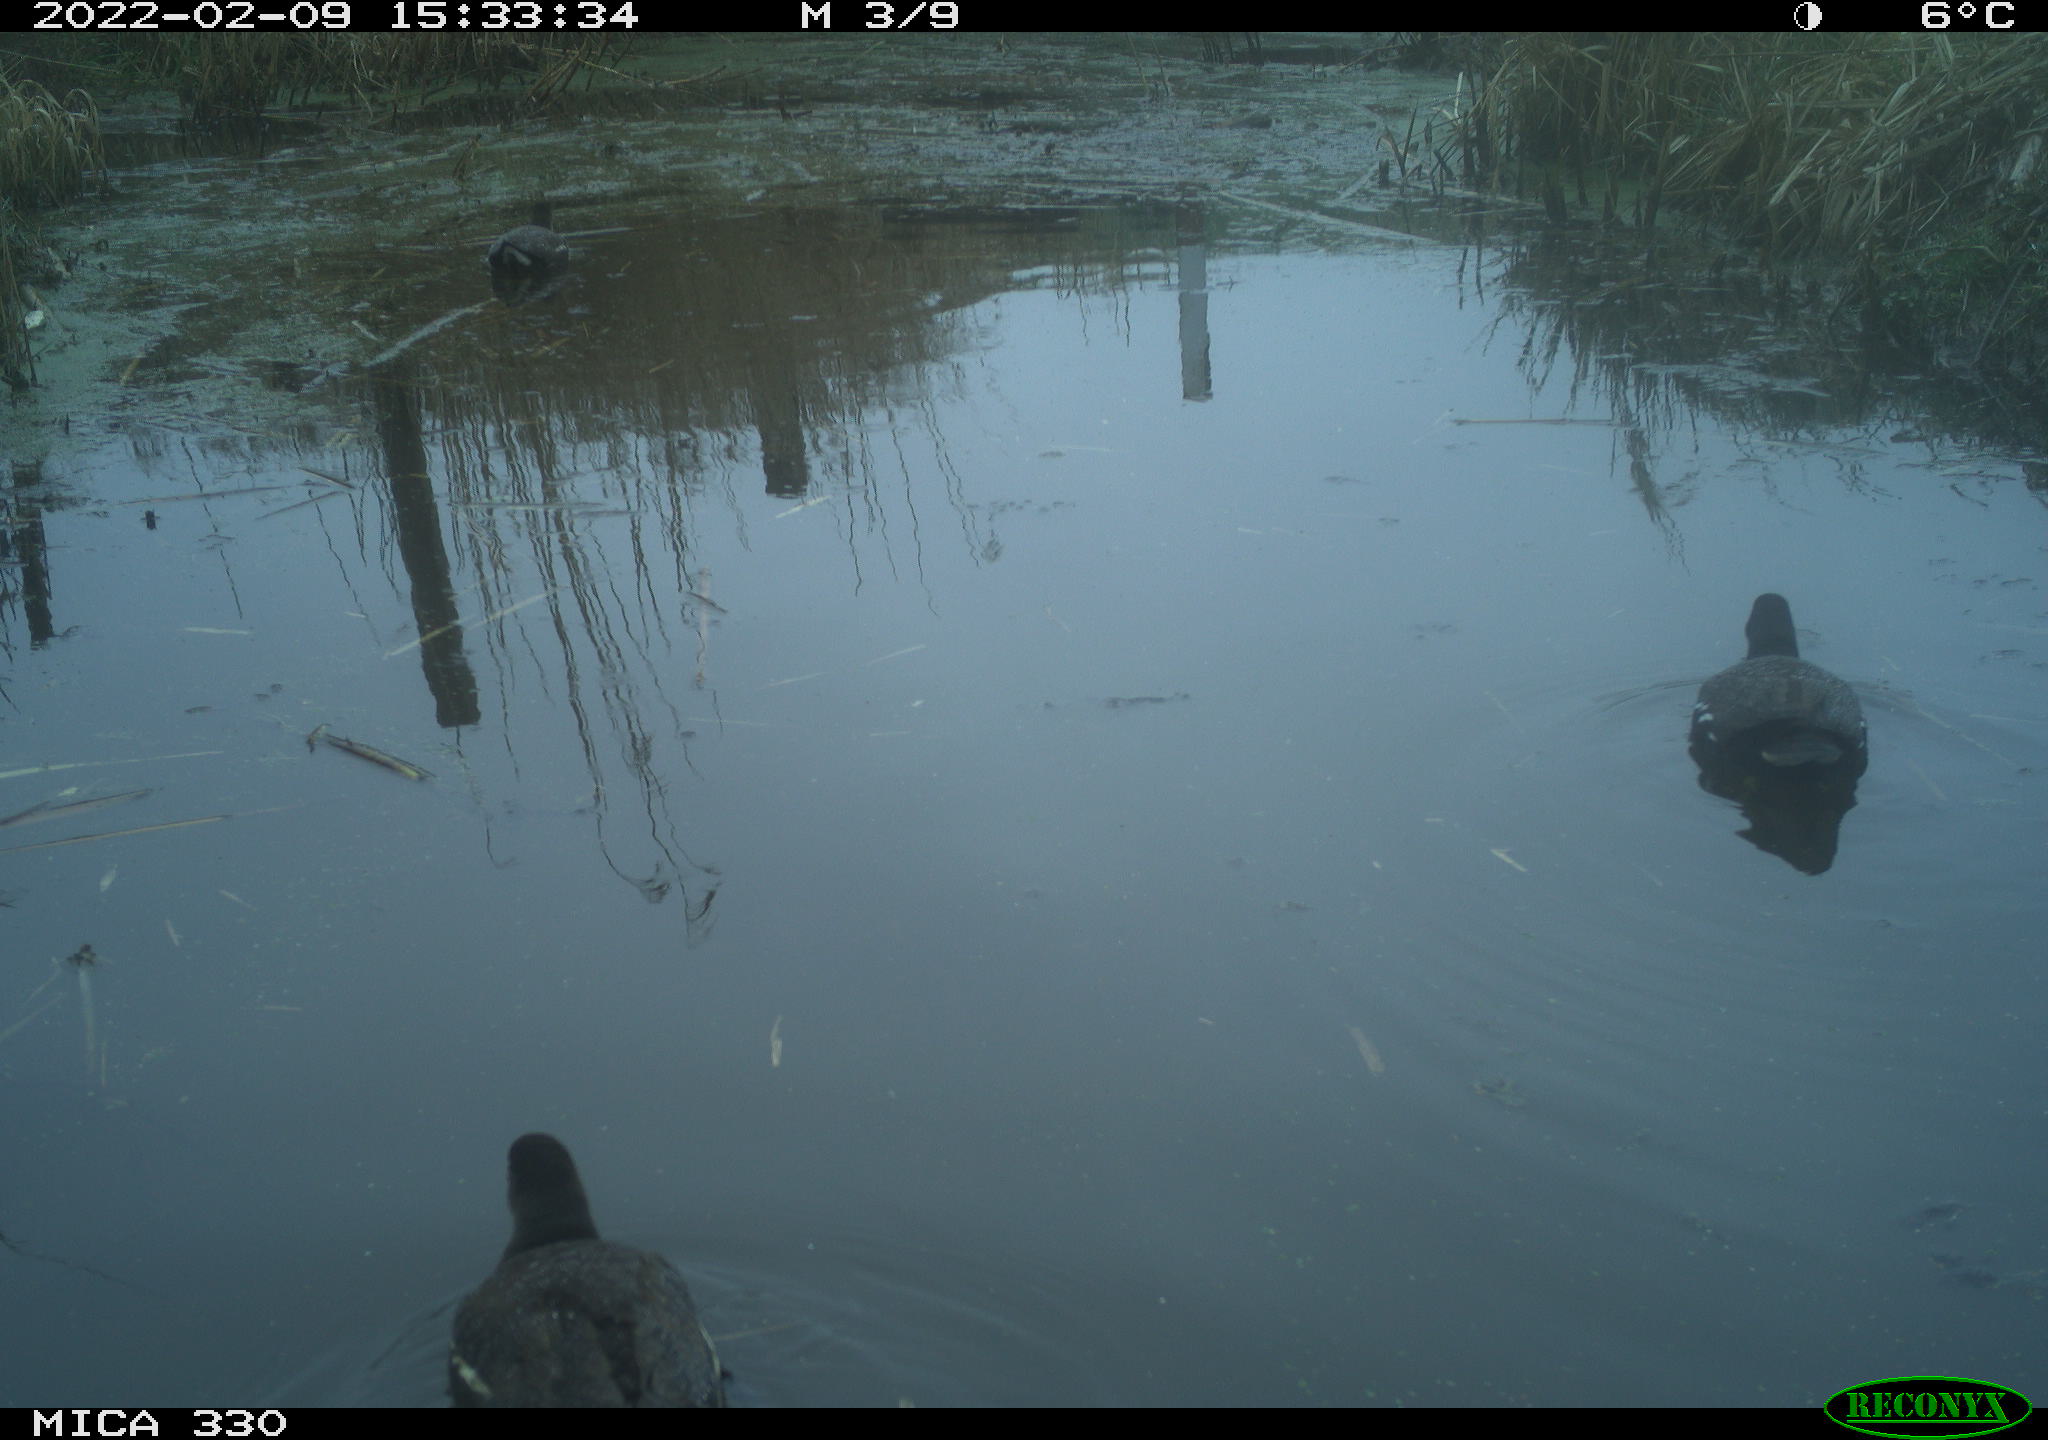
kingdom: Animalia
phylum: Chordata
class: Aves
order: Gruiformes
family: Rallidae
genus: Gallinula
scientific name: Gallinula chloropus
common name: Common moorhen
